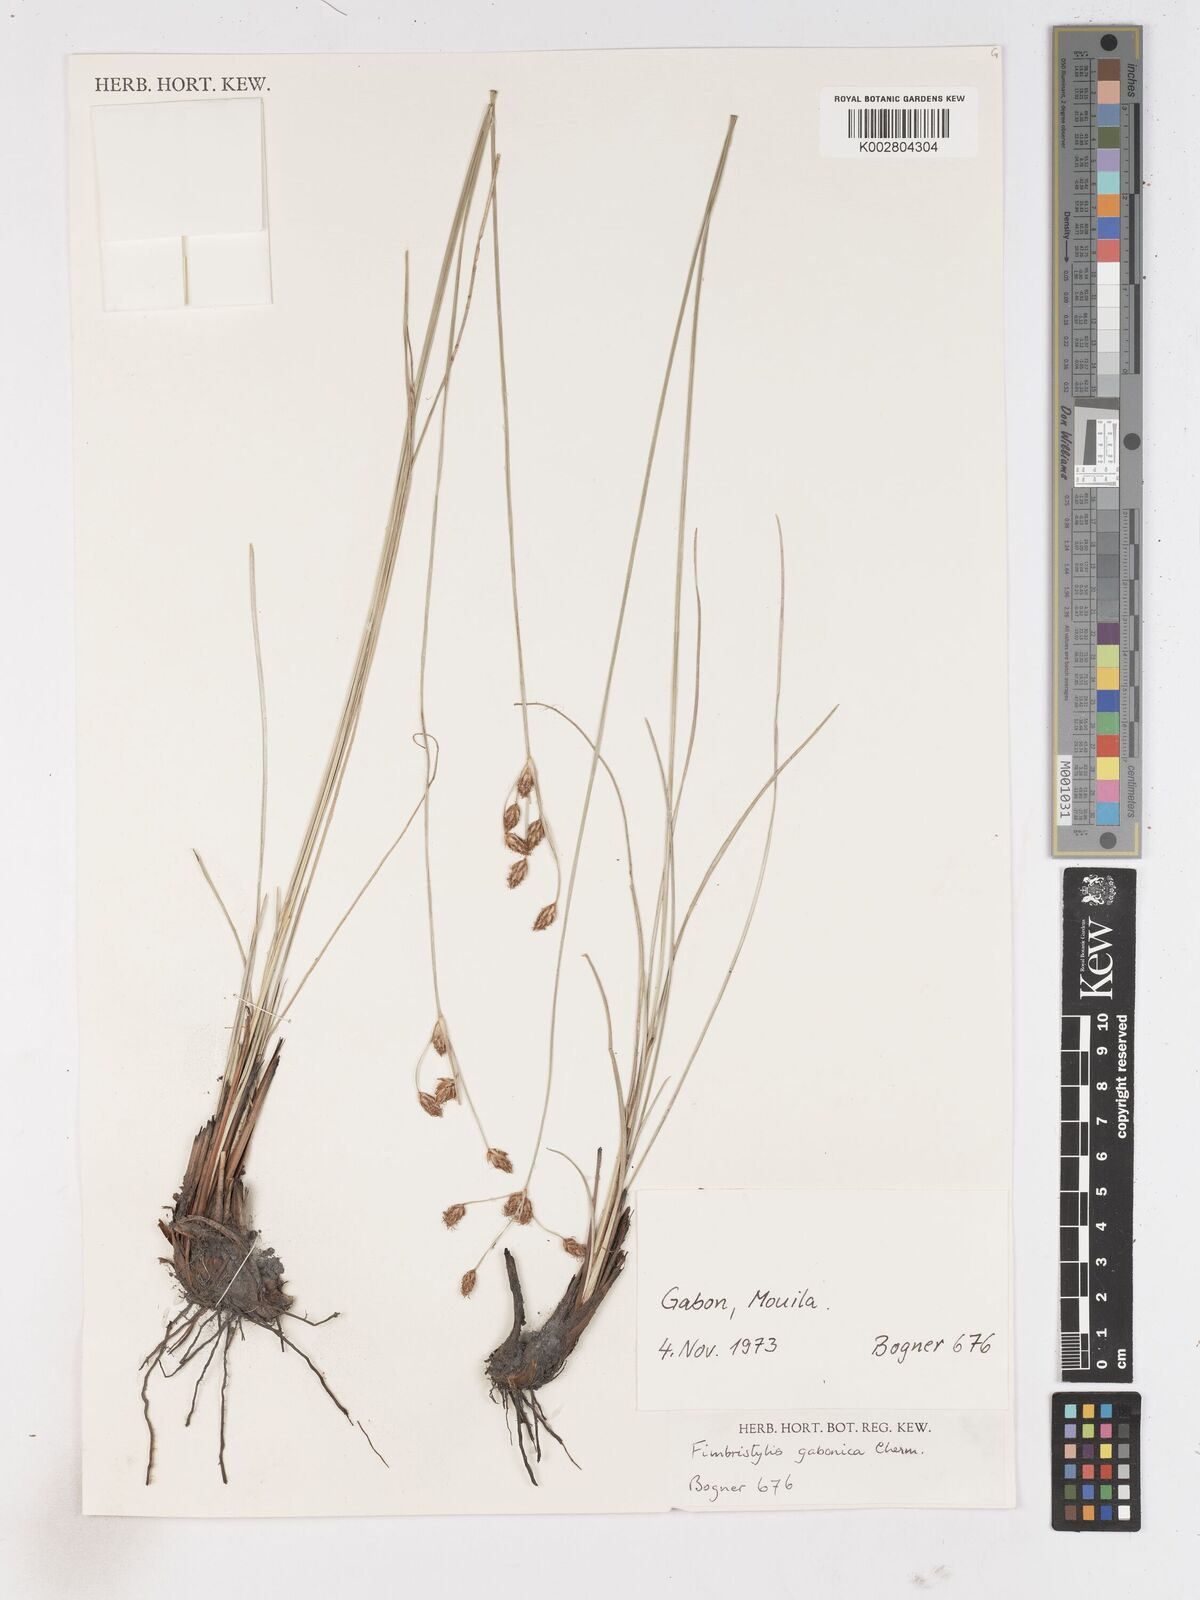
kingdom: Plantae
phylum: Tracheophyta
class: Liliopsida
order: Poales
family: Cyperaceae
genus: Fimbristylis
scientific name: Fimbristylis gabonica
